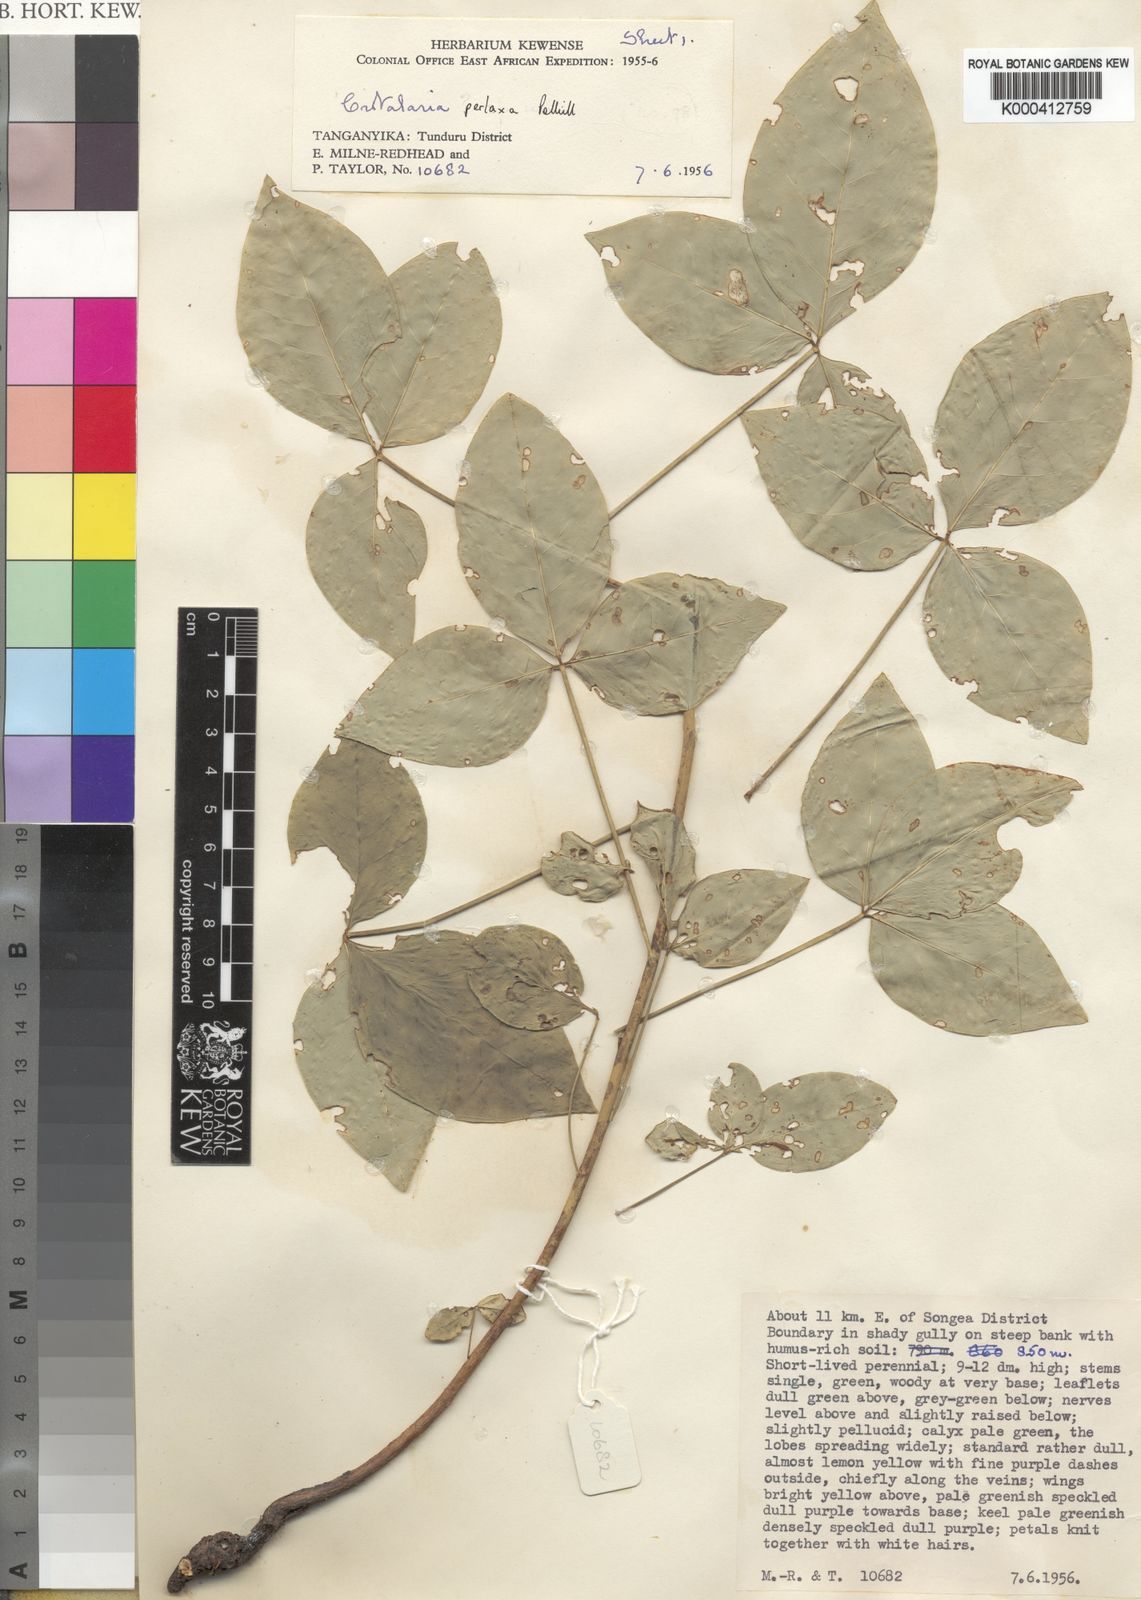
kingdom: Plantae
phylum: Tracheophyta
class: Magnoliopsida
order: Fabales
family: Fabaceae
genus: Crotalaria
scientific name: Crotalaria perlaxa
